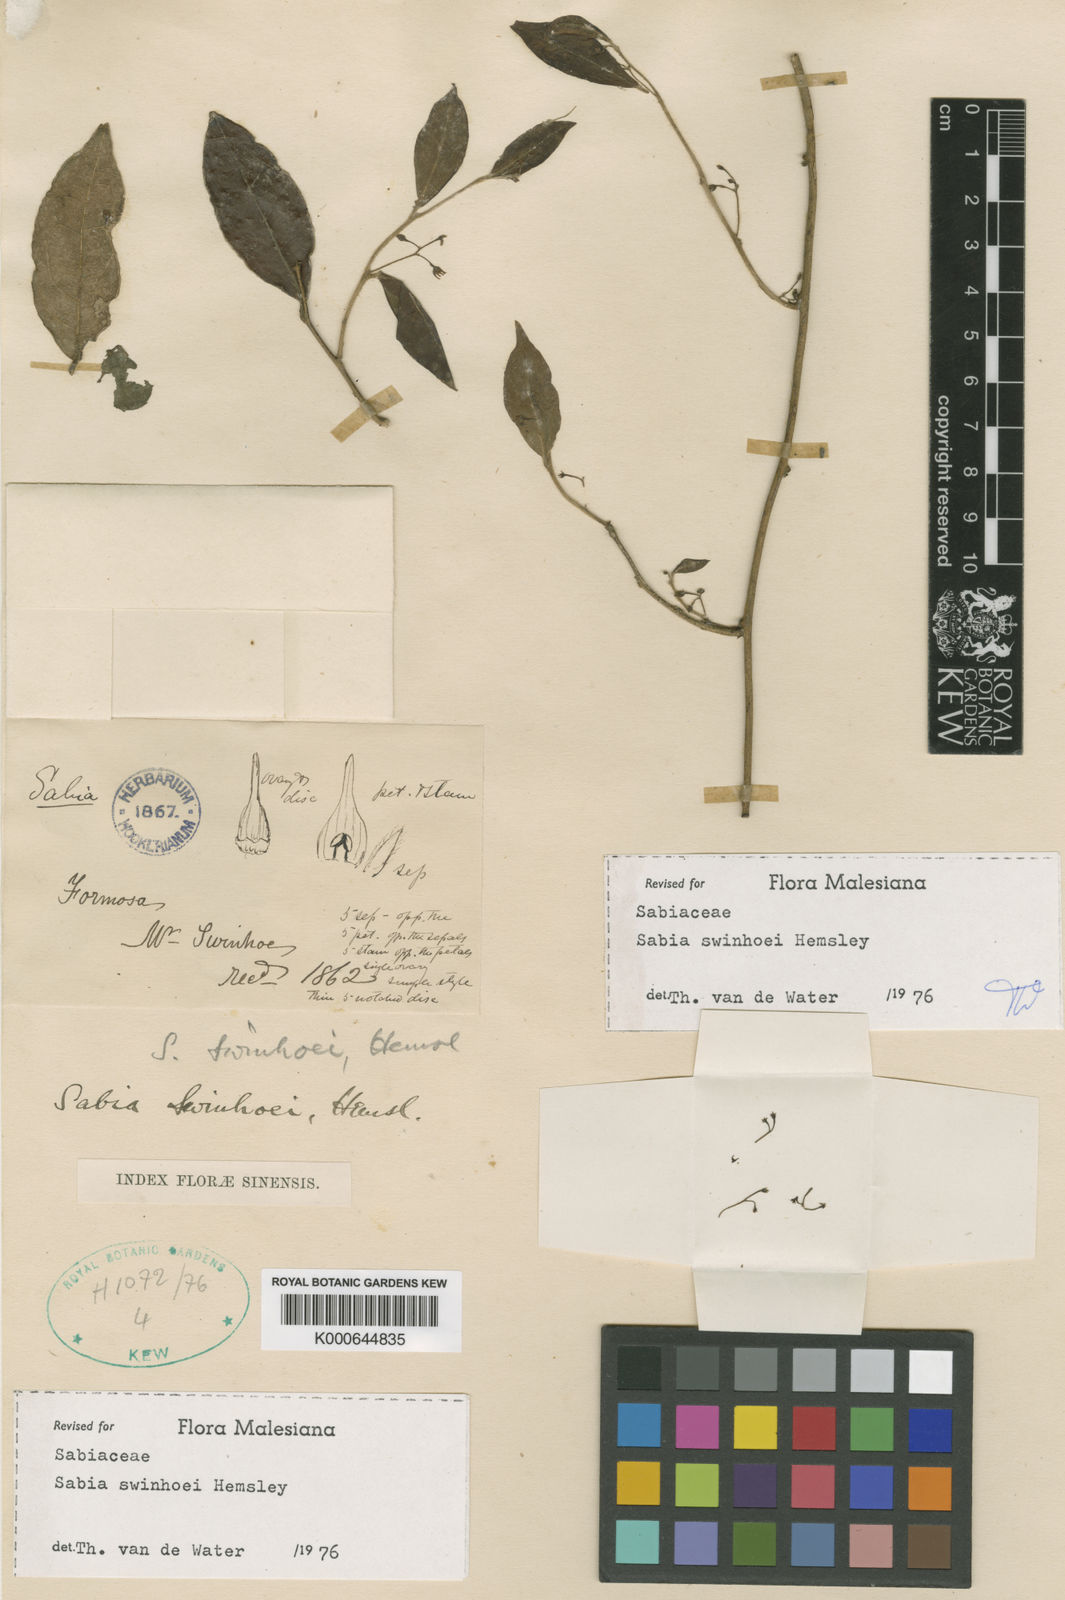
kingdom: Plantae
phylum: Tracheophyta
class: Magnoliopsida
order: Proteales
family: Sabiaceae
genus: Sabia
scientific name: Sabia swinhoei
